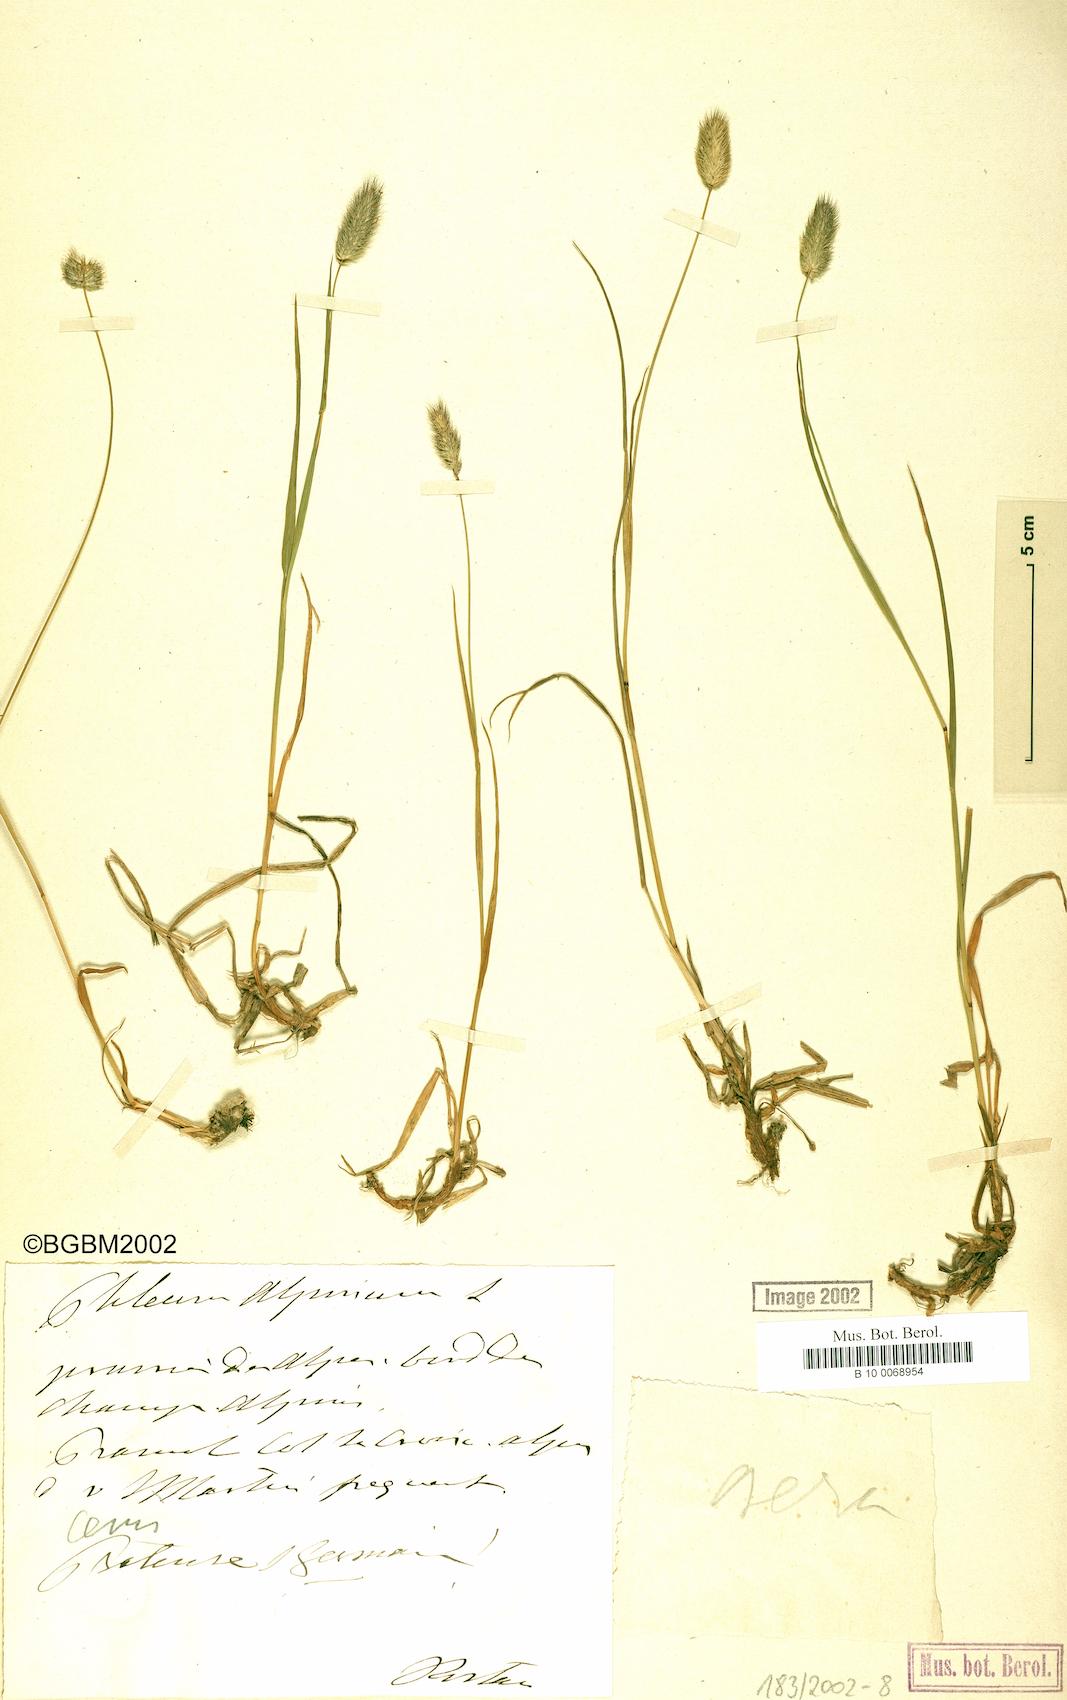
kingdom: Plantae
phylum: Tracheophyta
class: Liliopsida
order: Poales
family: Poaceae
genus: Phleum
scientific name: Phleum alpinum
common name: Alpine cat's-tail
